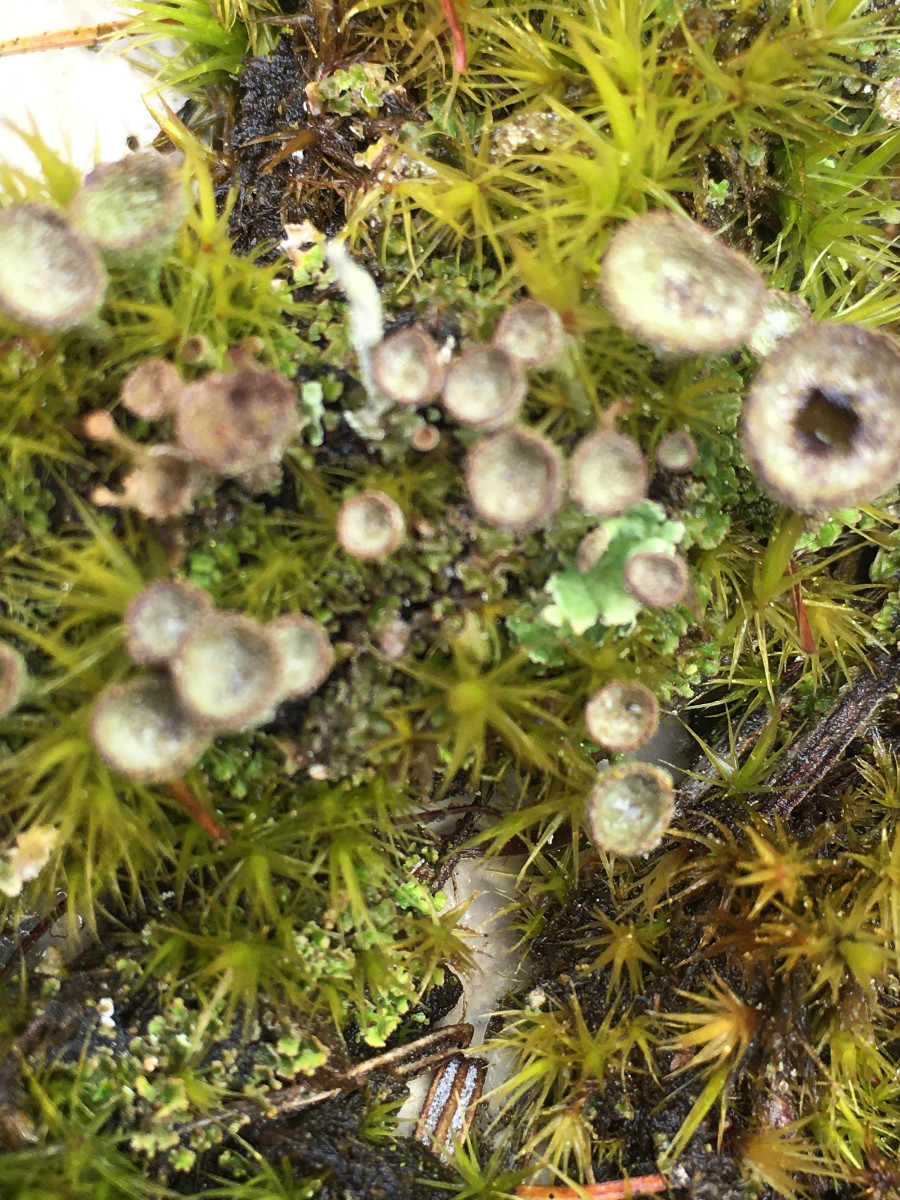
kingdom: Fungi
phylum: Ascomycota
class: Lecanoromycetes
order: Lecanorales
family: Cladoniaceae
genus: Cladonia
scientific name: Cladonia
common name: brungrøn bægerlav
